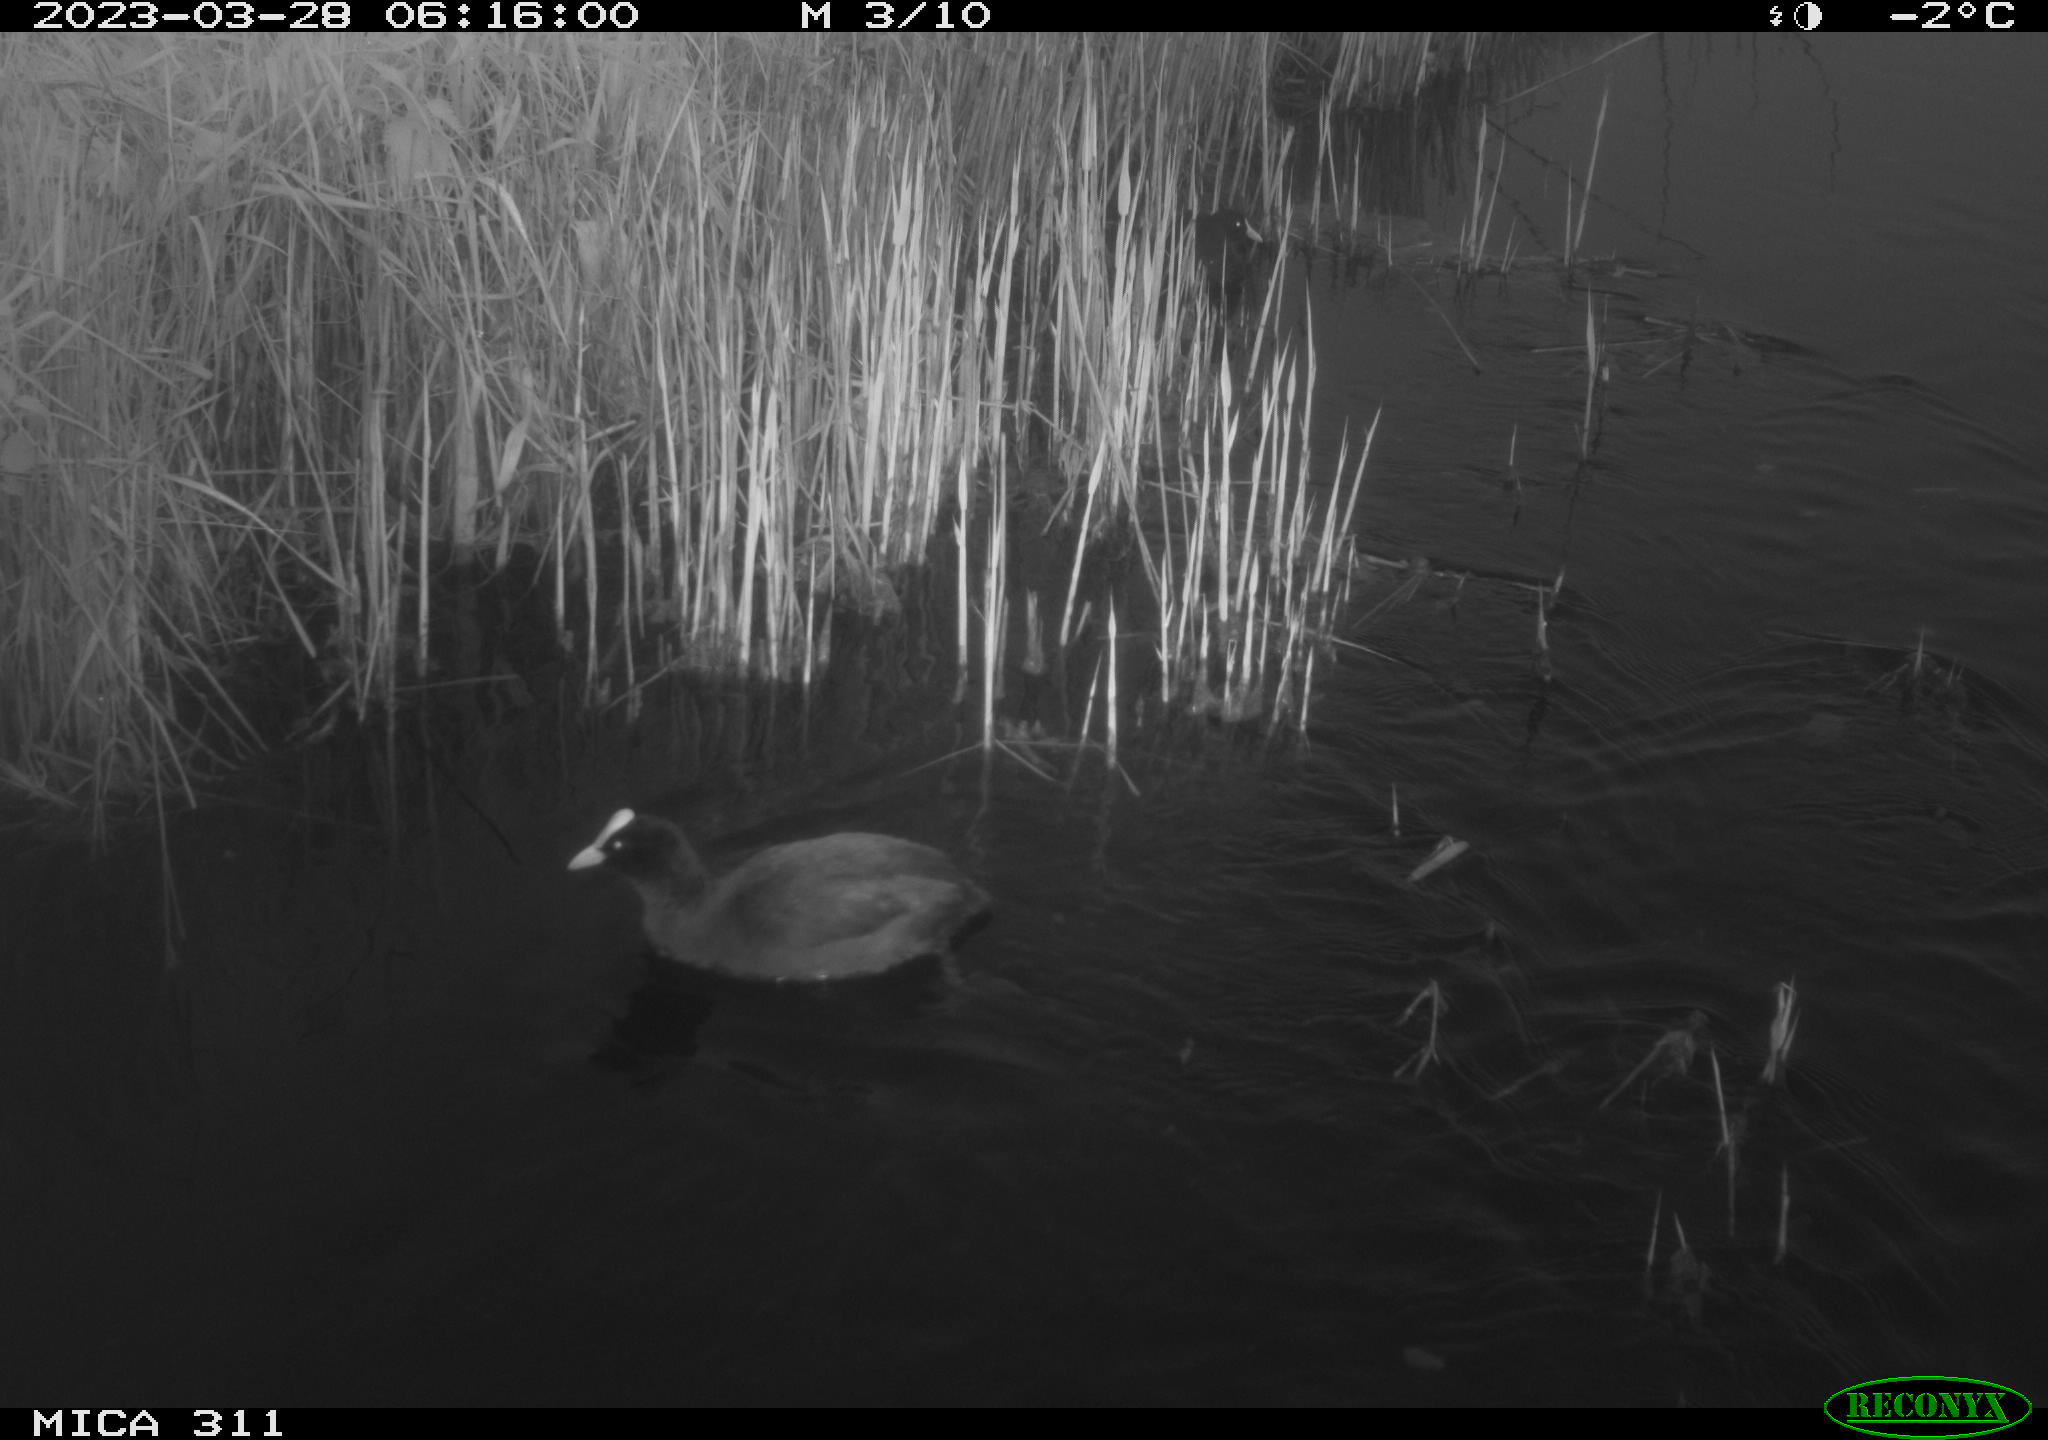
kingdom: Animalia
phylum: Chordata
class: Aves
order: Gruiformes
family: Rallidae
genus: Fulica
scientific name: Fulica atra
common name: Eurasian coot
